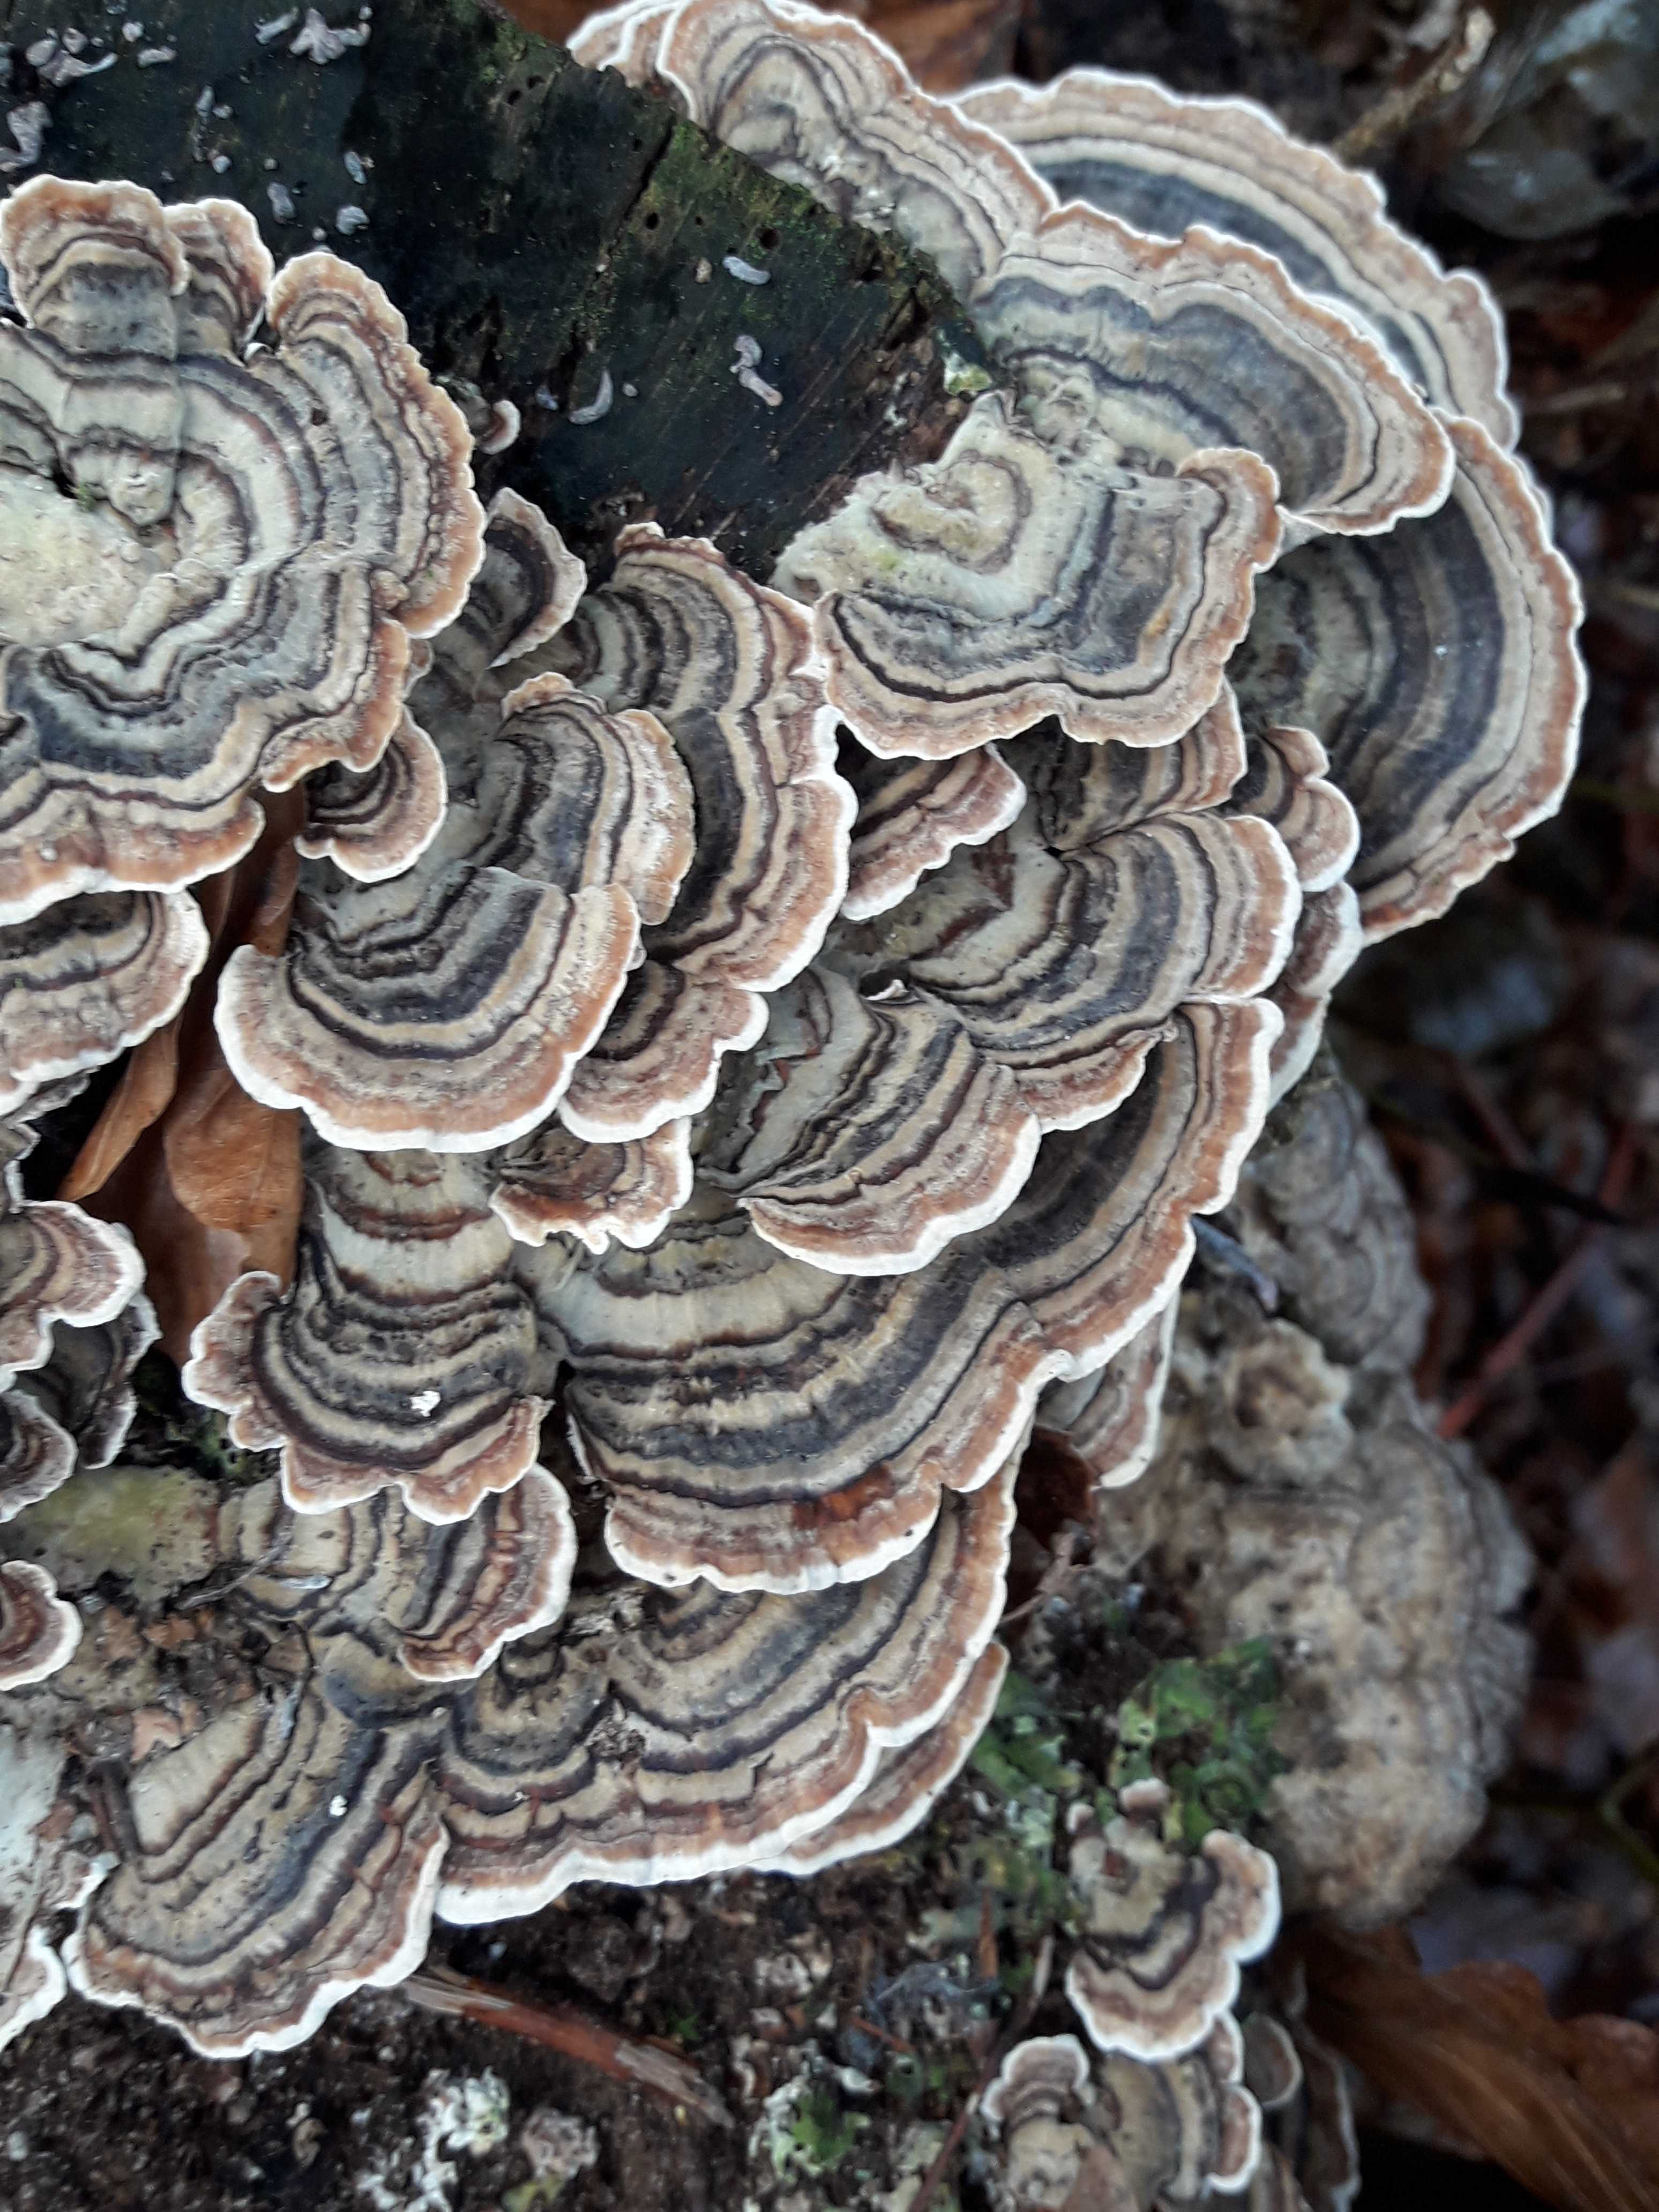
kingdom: Fungi
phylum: Basidiomycota
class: Agaricomycetes
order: Polyporales
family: Polyporaceae
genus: Trametes
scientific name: Trametes versicolor
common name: broget læderporesvamp
